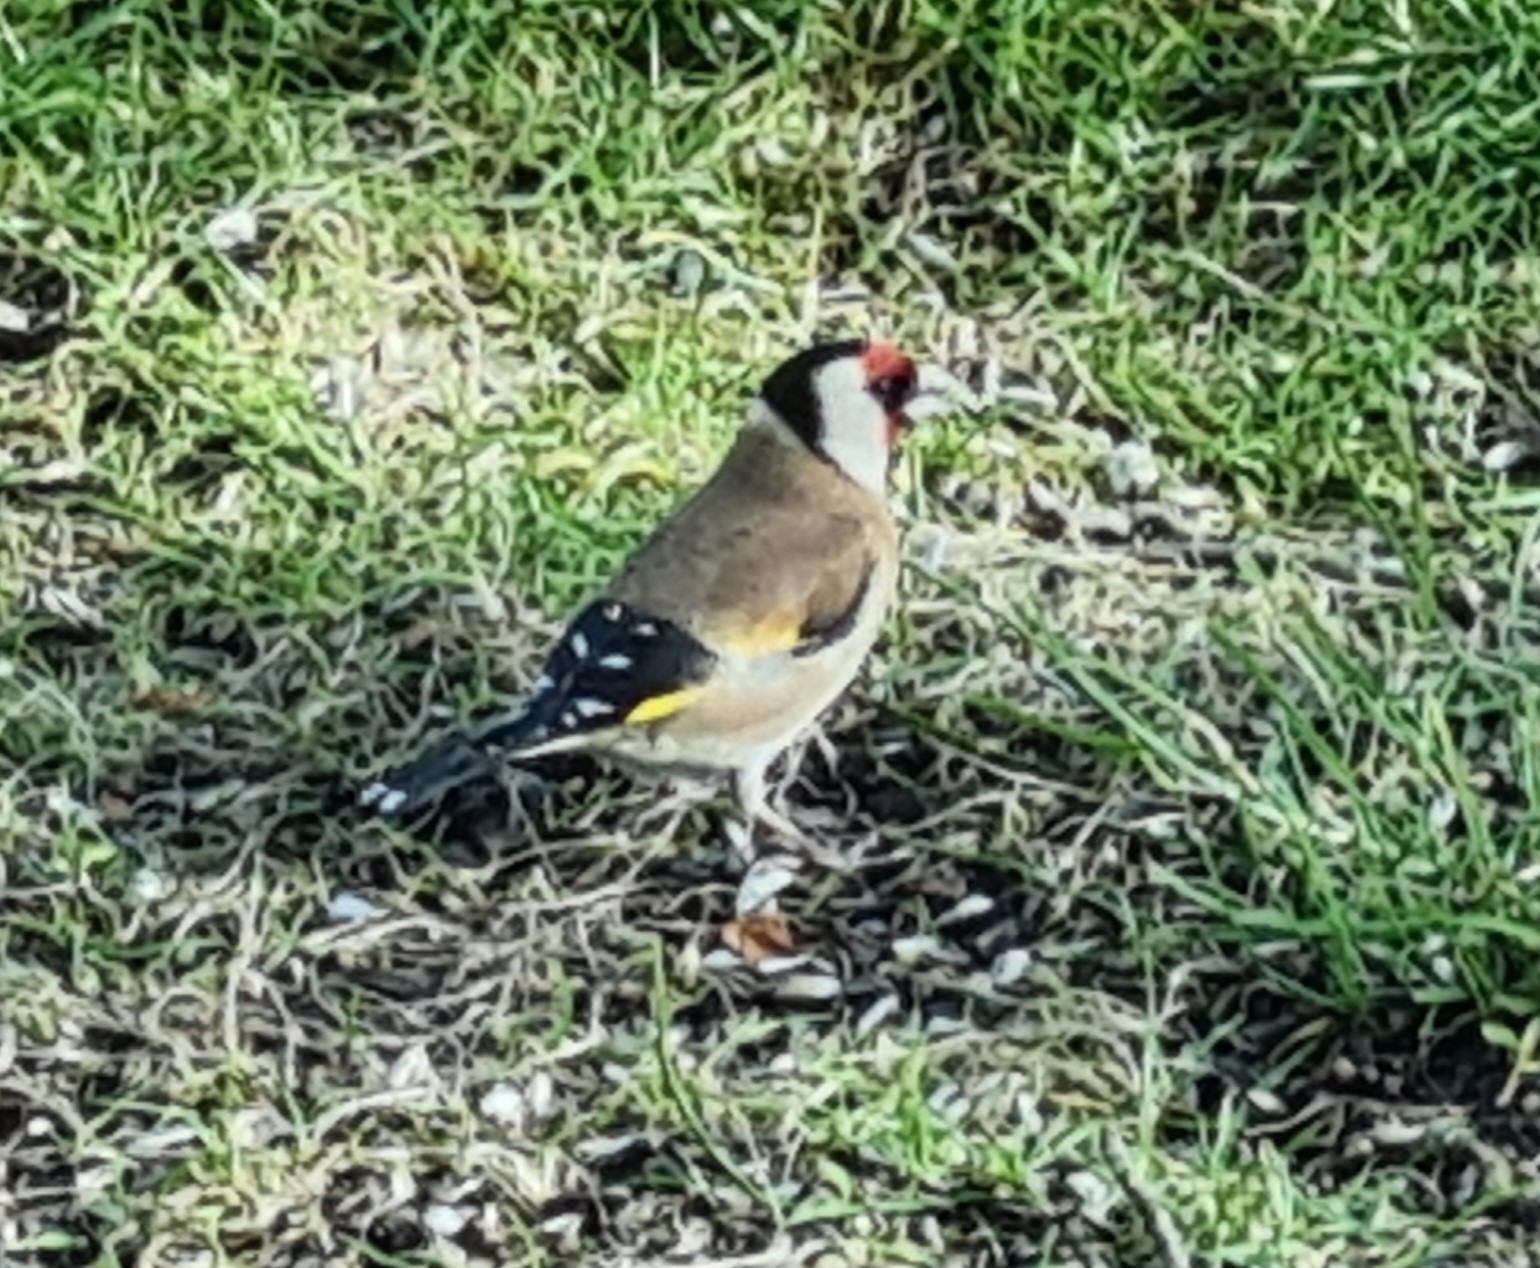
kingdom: Animalia
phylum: Chordata
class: Aves
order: Passeriformes
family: Fringillidae
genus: Carduelis
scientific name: Carduelis carduelis
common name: Stillits
